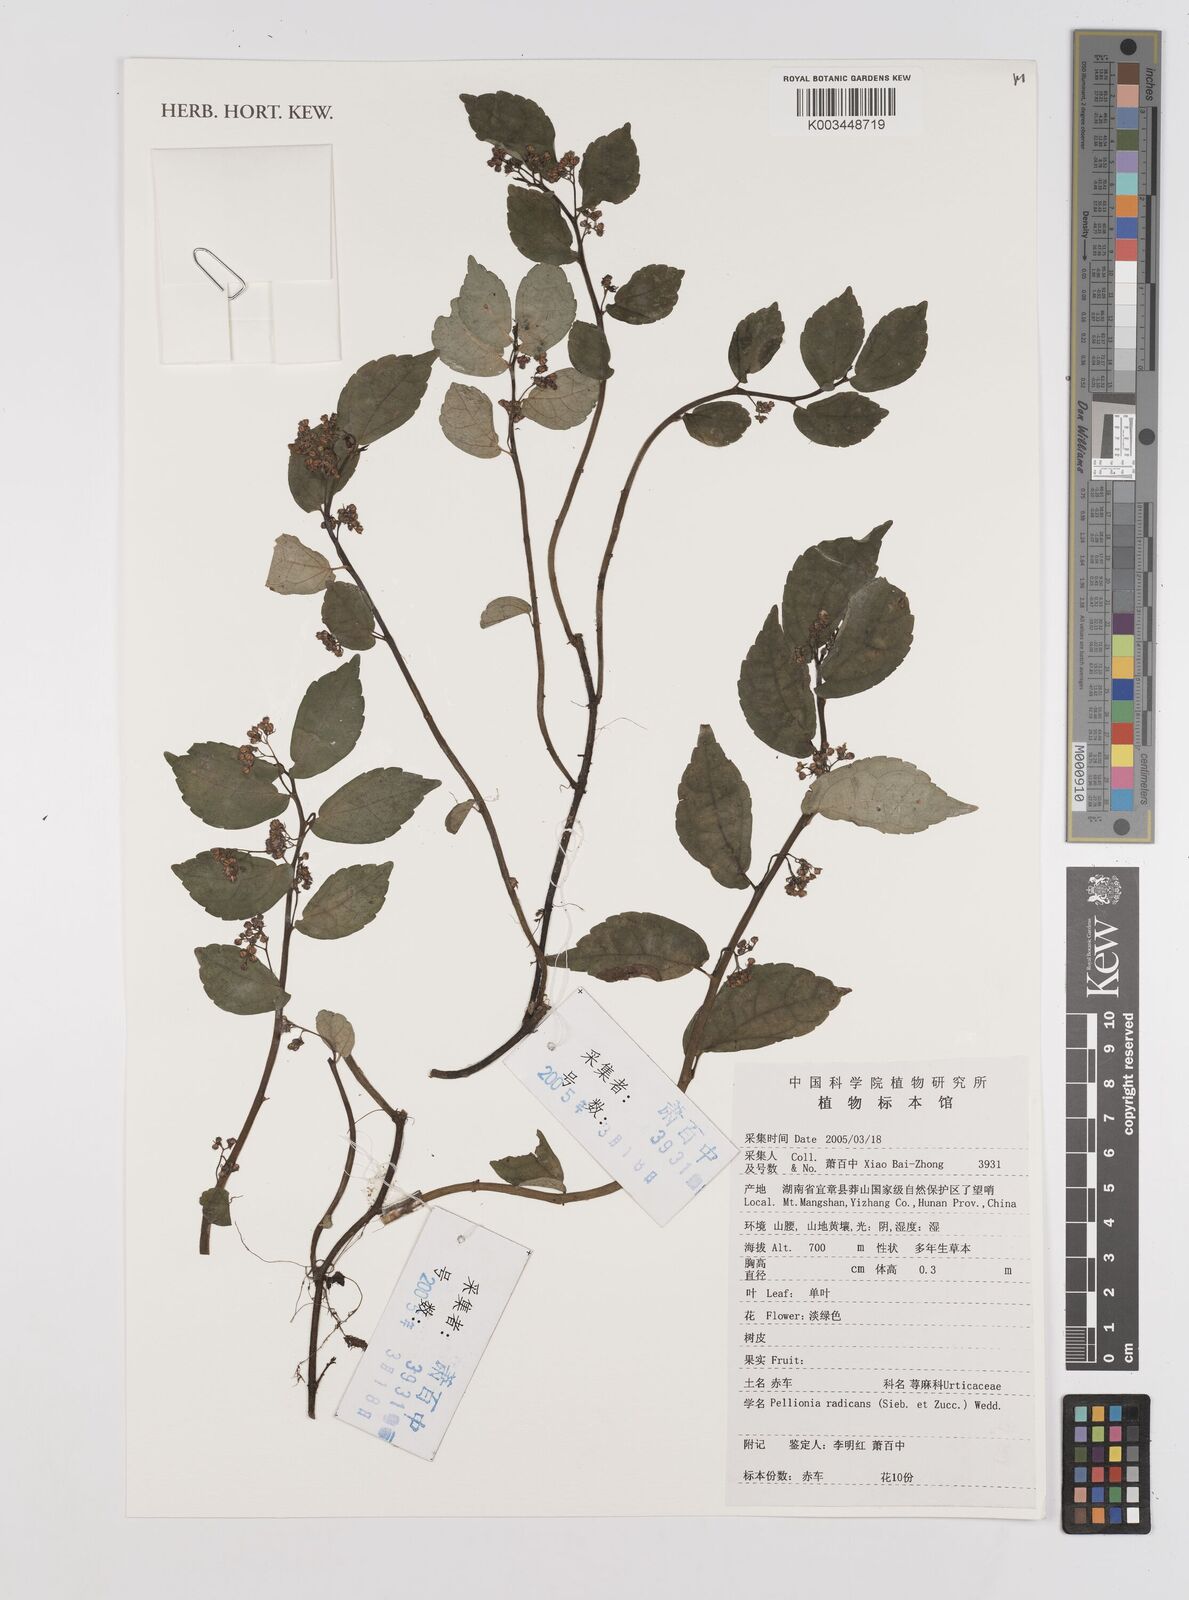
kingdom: Plantae
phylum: Tracheophyta
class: Magnoliopsida
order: Rosales
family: Urticaceae
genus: Elatostema
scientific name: Elatostema radicans
